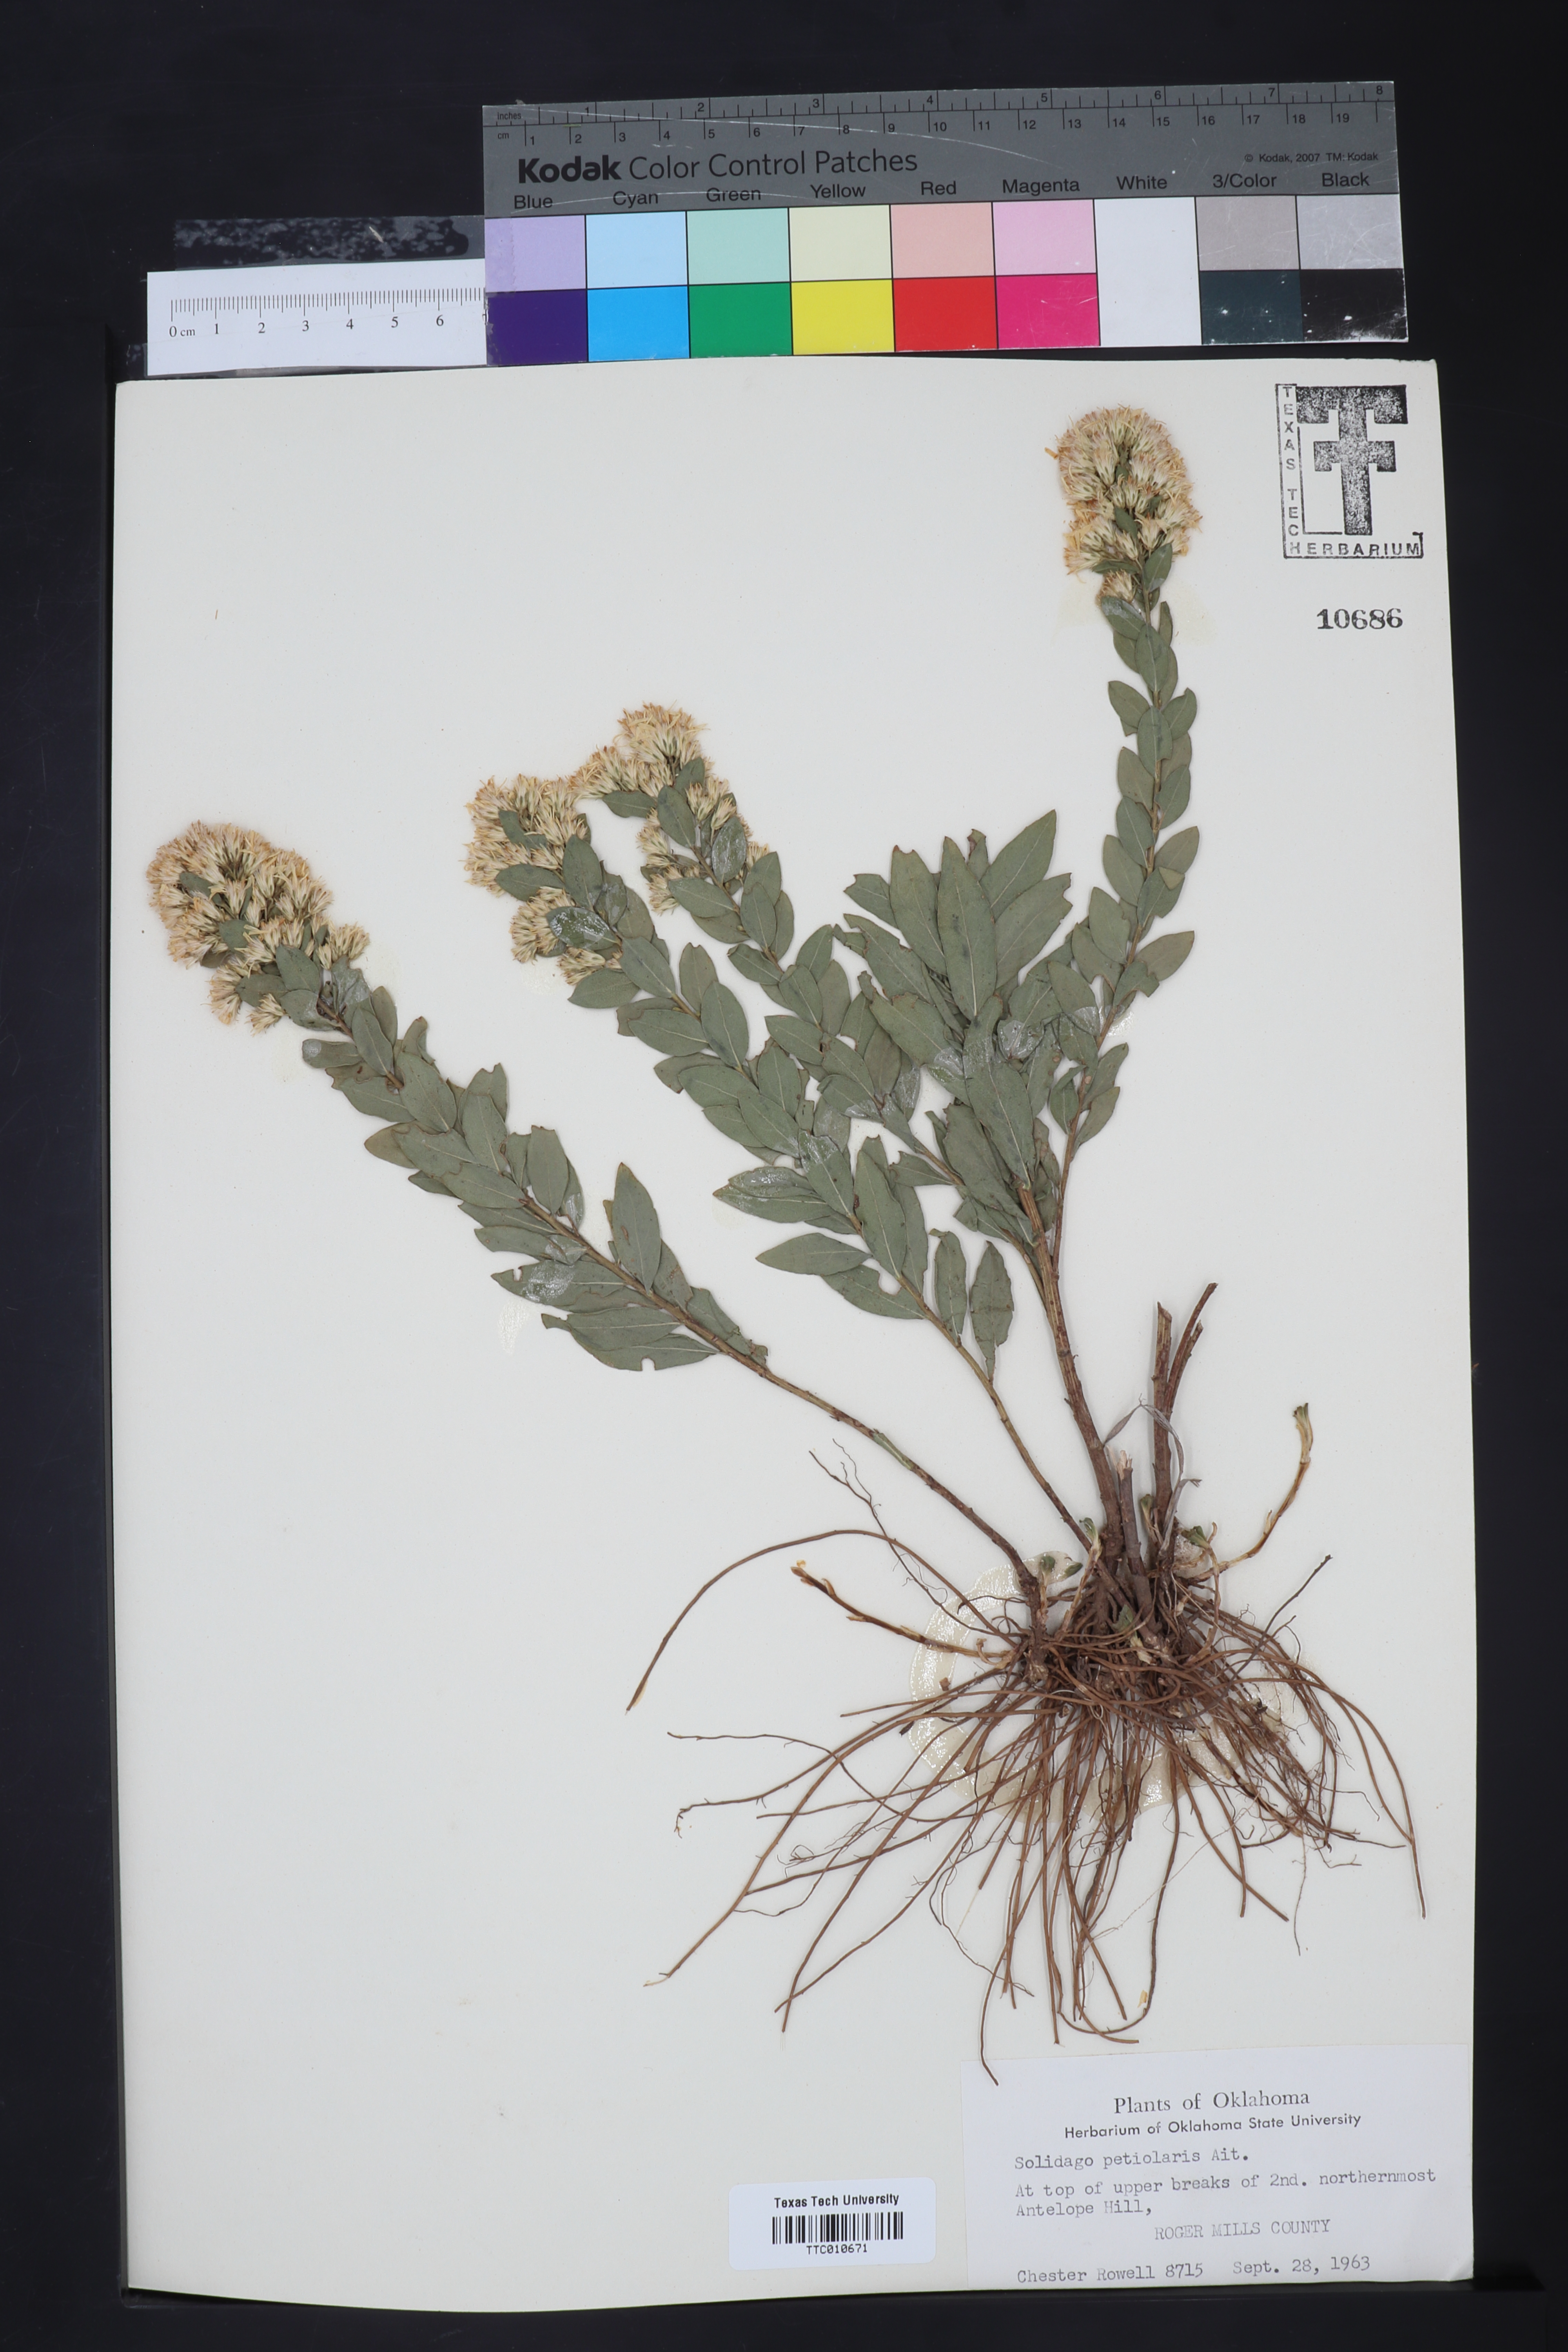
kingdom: Plantae
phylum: Tracheophyta
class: Magnoliopsida
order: Asterales
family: Asteraceae
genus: Solidago
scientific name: Solidago petiolaris
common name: Downy ragged goldenrod
